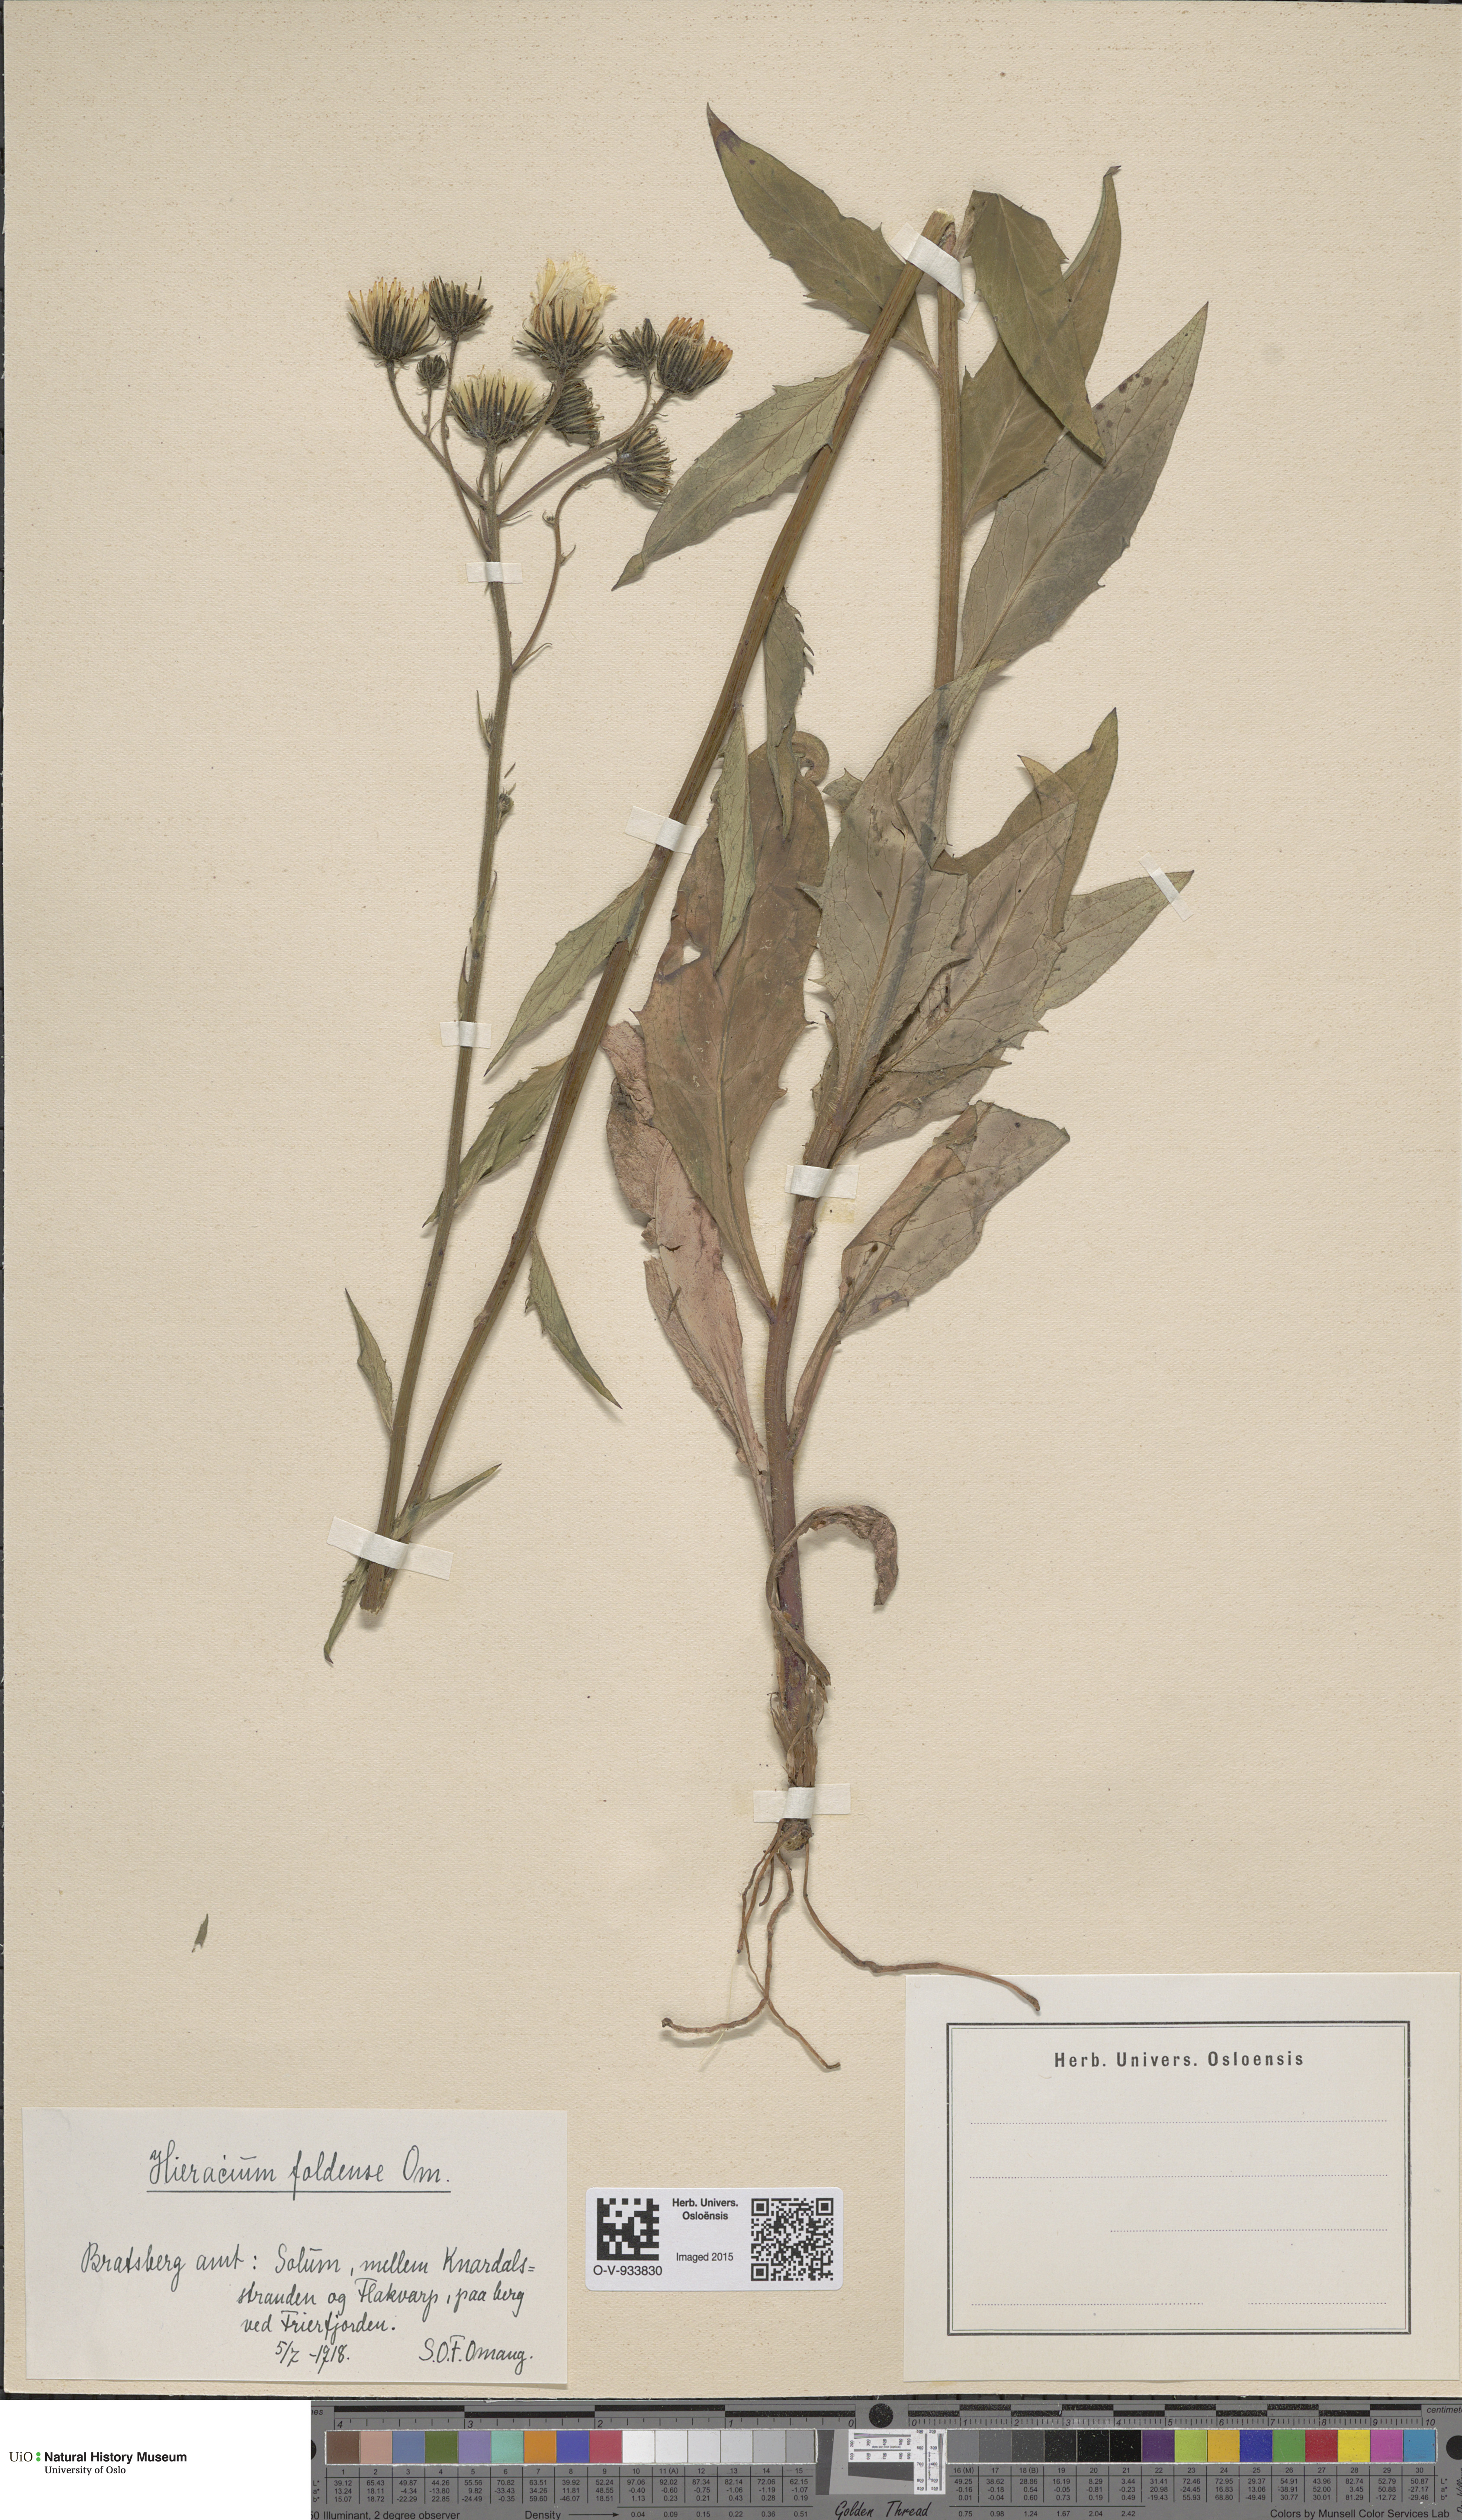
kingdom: Plantae
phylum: Tracheophyta
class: Magnoliopsida
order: Asterales
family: Asteraceae
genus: Hieracium
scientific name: Hieracium
